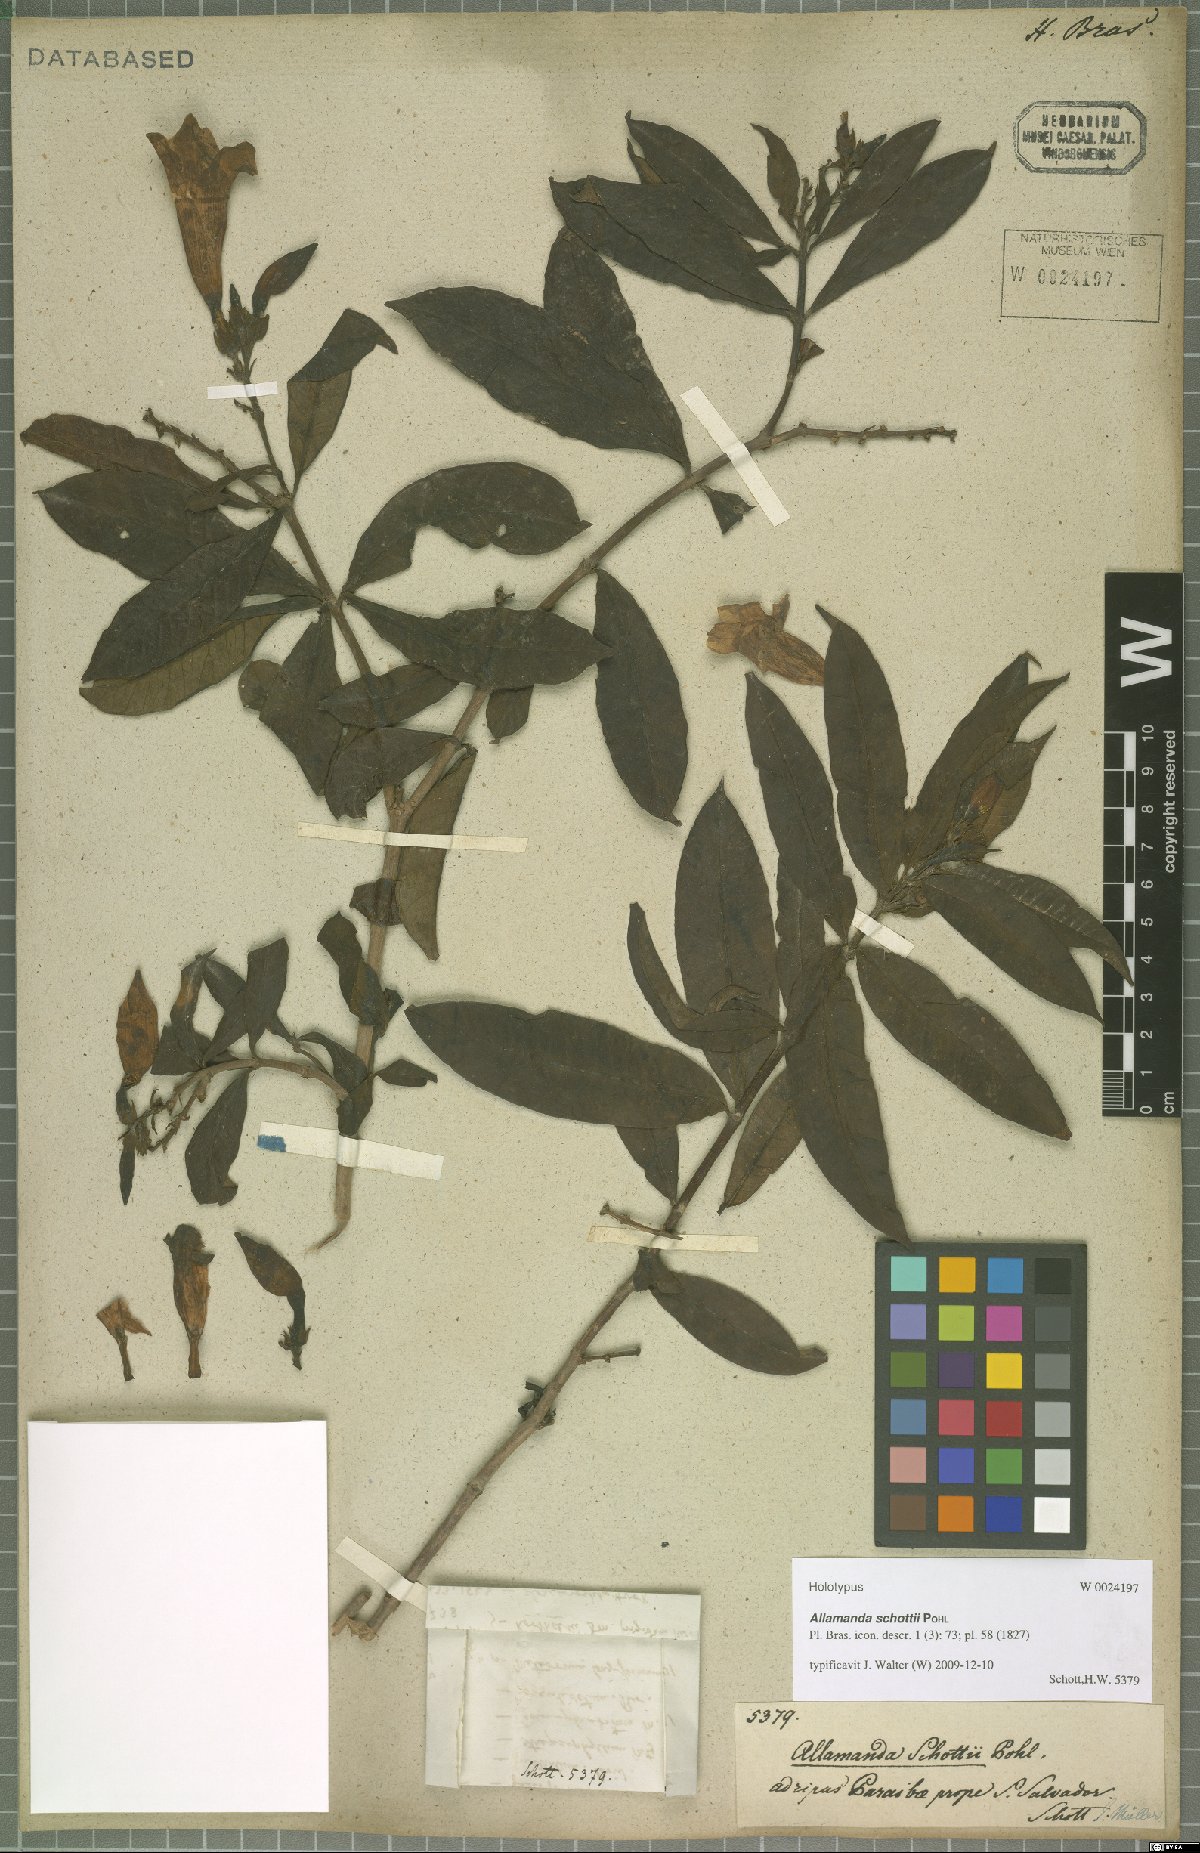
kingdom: Plantae
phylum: Tracheophyta
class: Magnoliopsida
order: Gentianales
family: Apocynaceae
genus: Allamanda
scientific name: Allamanda schottii
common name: Bush allamanda
